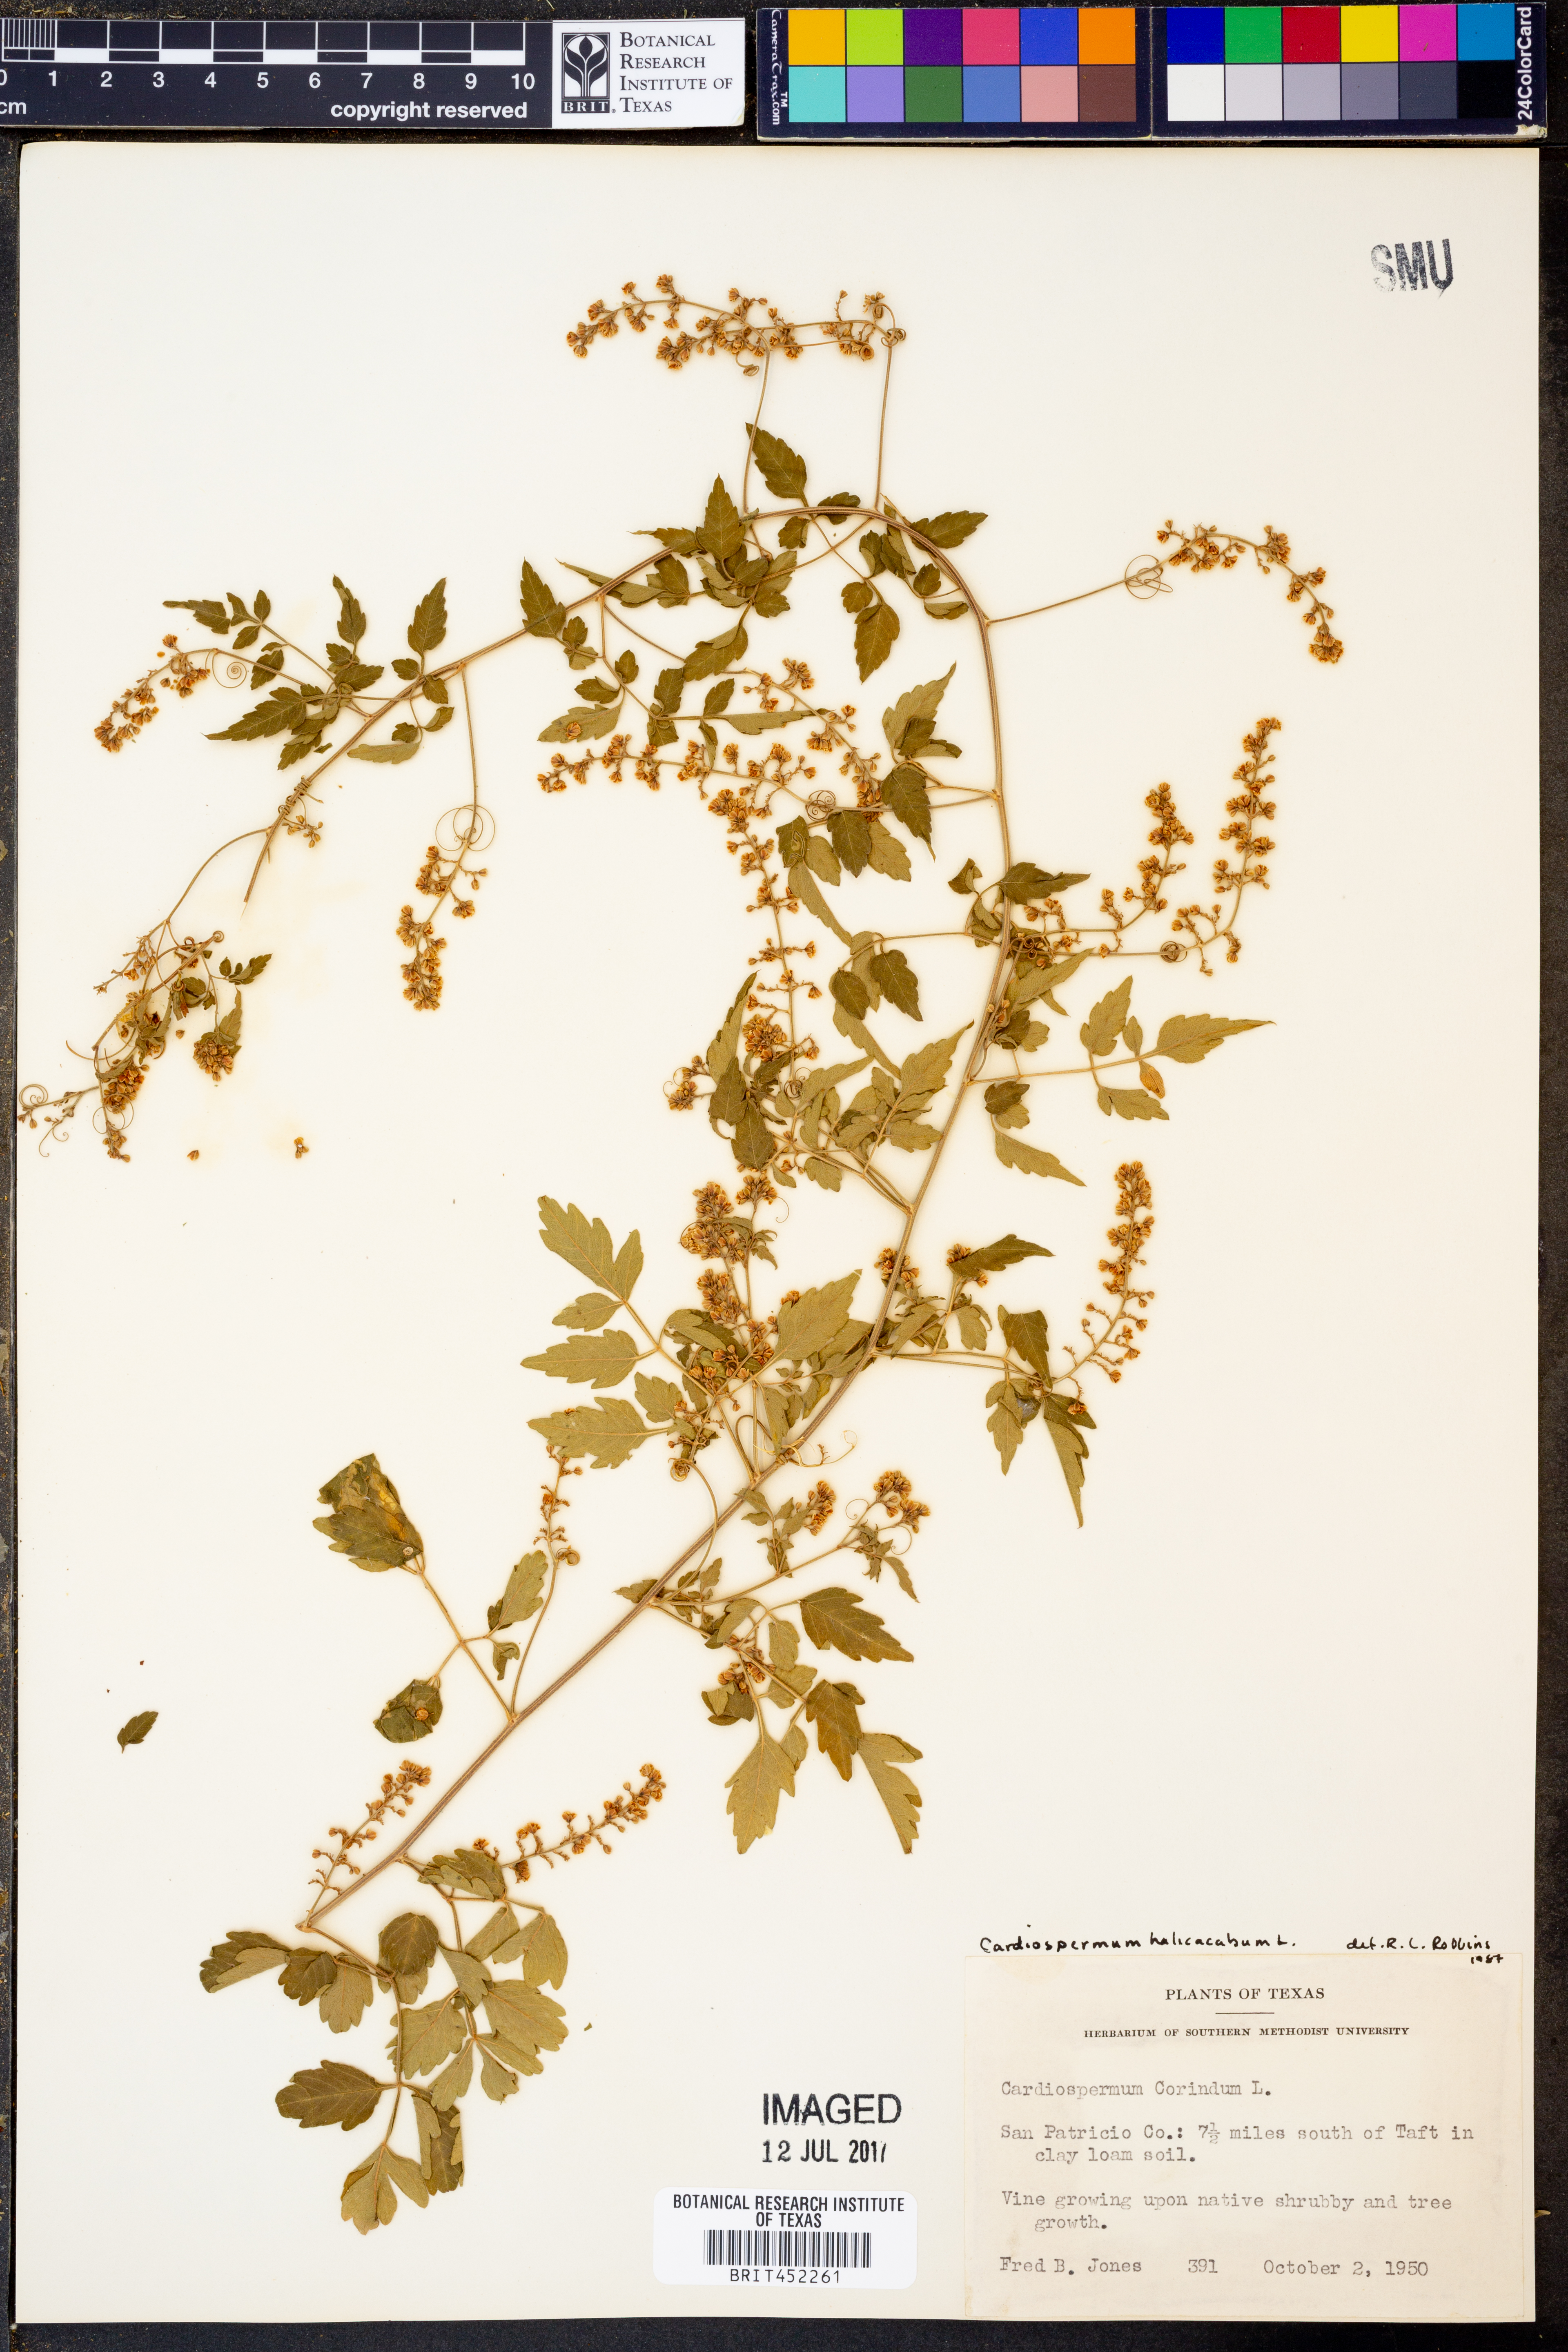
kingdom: Plantae
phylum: Tracheophyta
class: Magnoliopsida
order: Sapindales
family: Sapindaceae
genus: Cardiospermum
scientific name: Cardiospermum halicacabum
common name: Balloon vine
